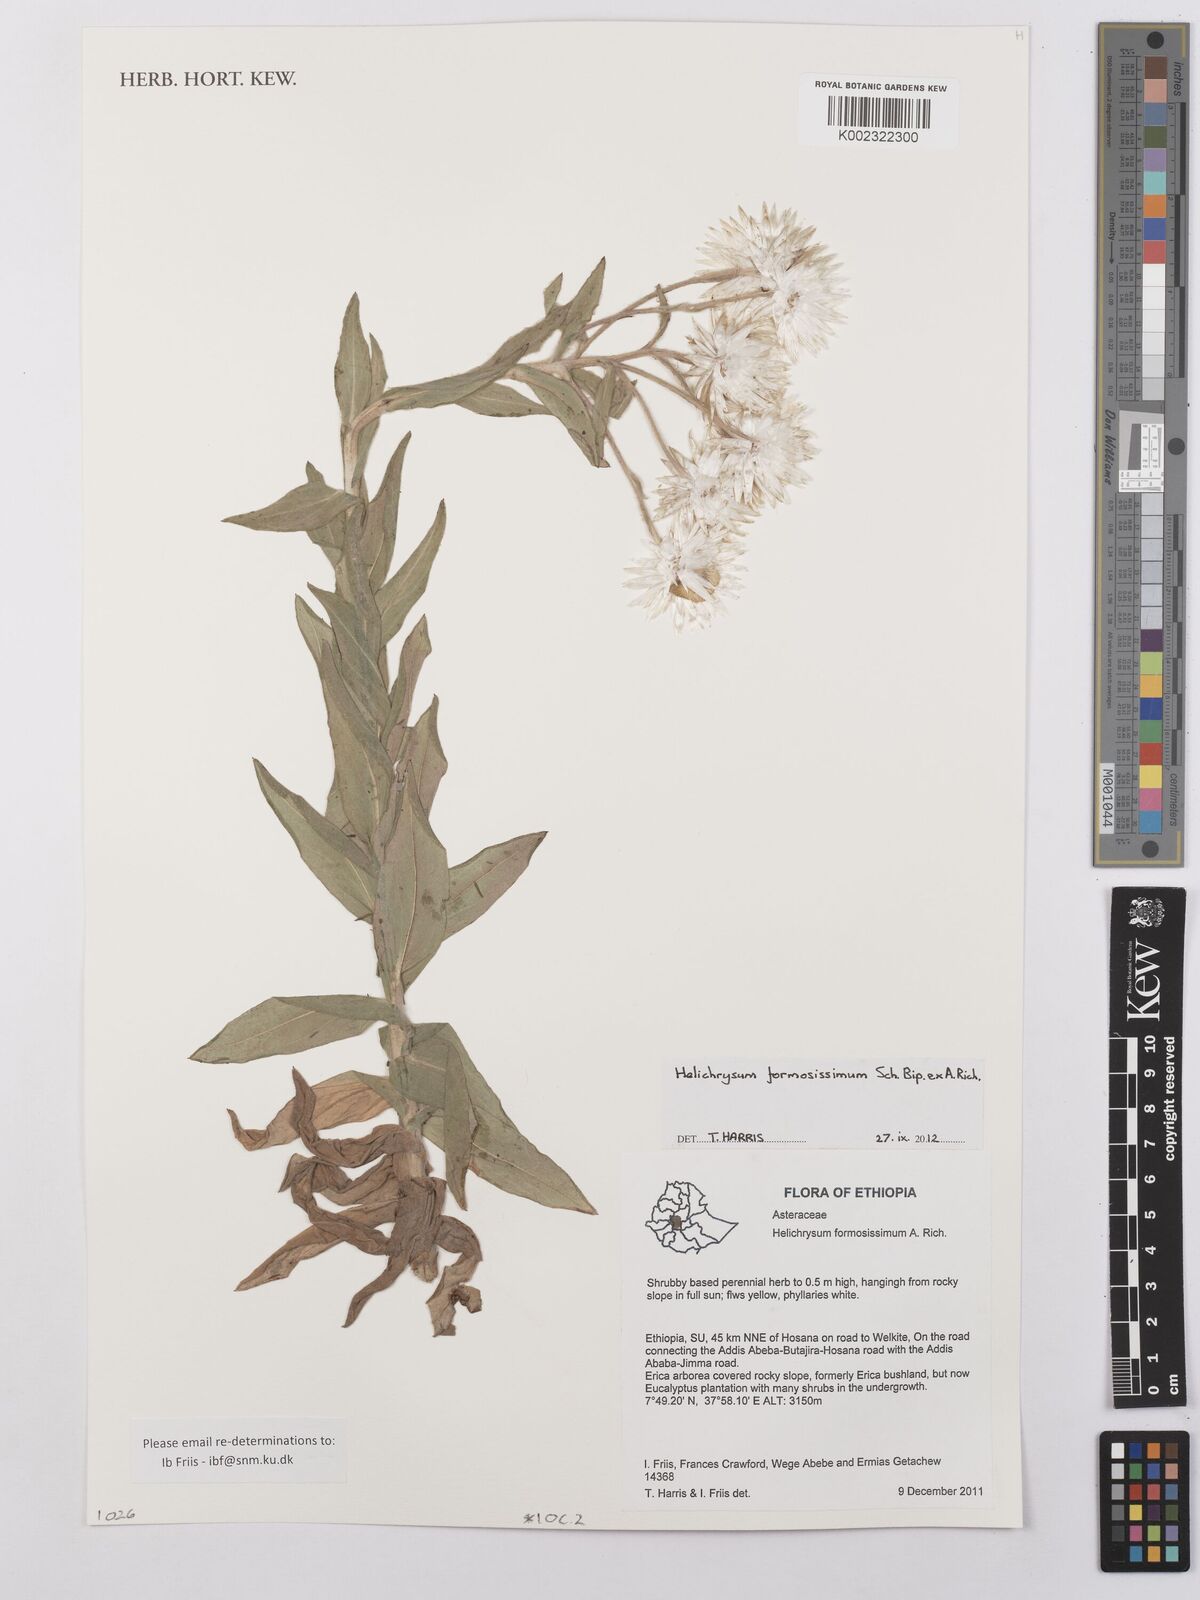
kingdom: Plantae
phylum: Tracheophyta
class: Magnoliopsida
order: Asterales
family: Asteraceae
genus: Helichrysum
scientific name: Helichrysum formosissimum
